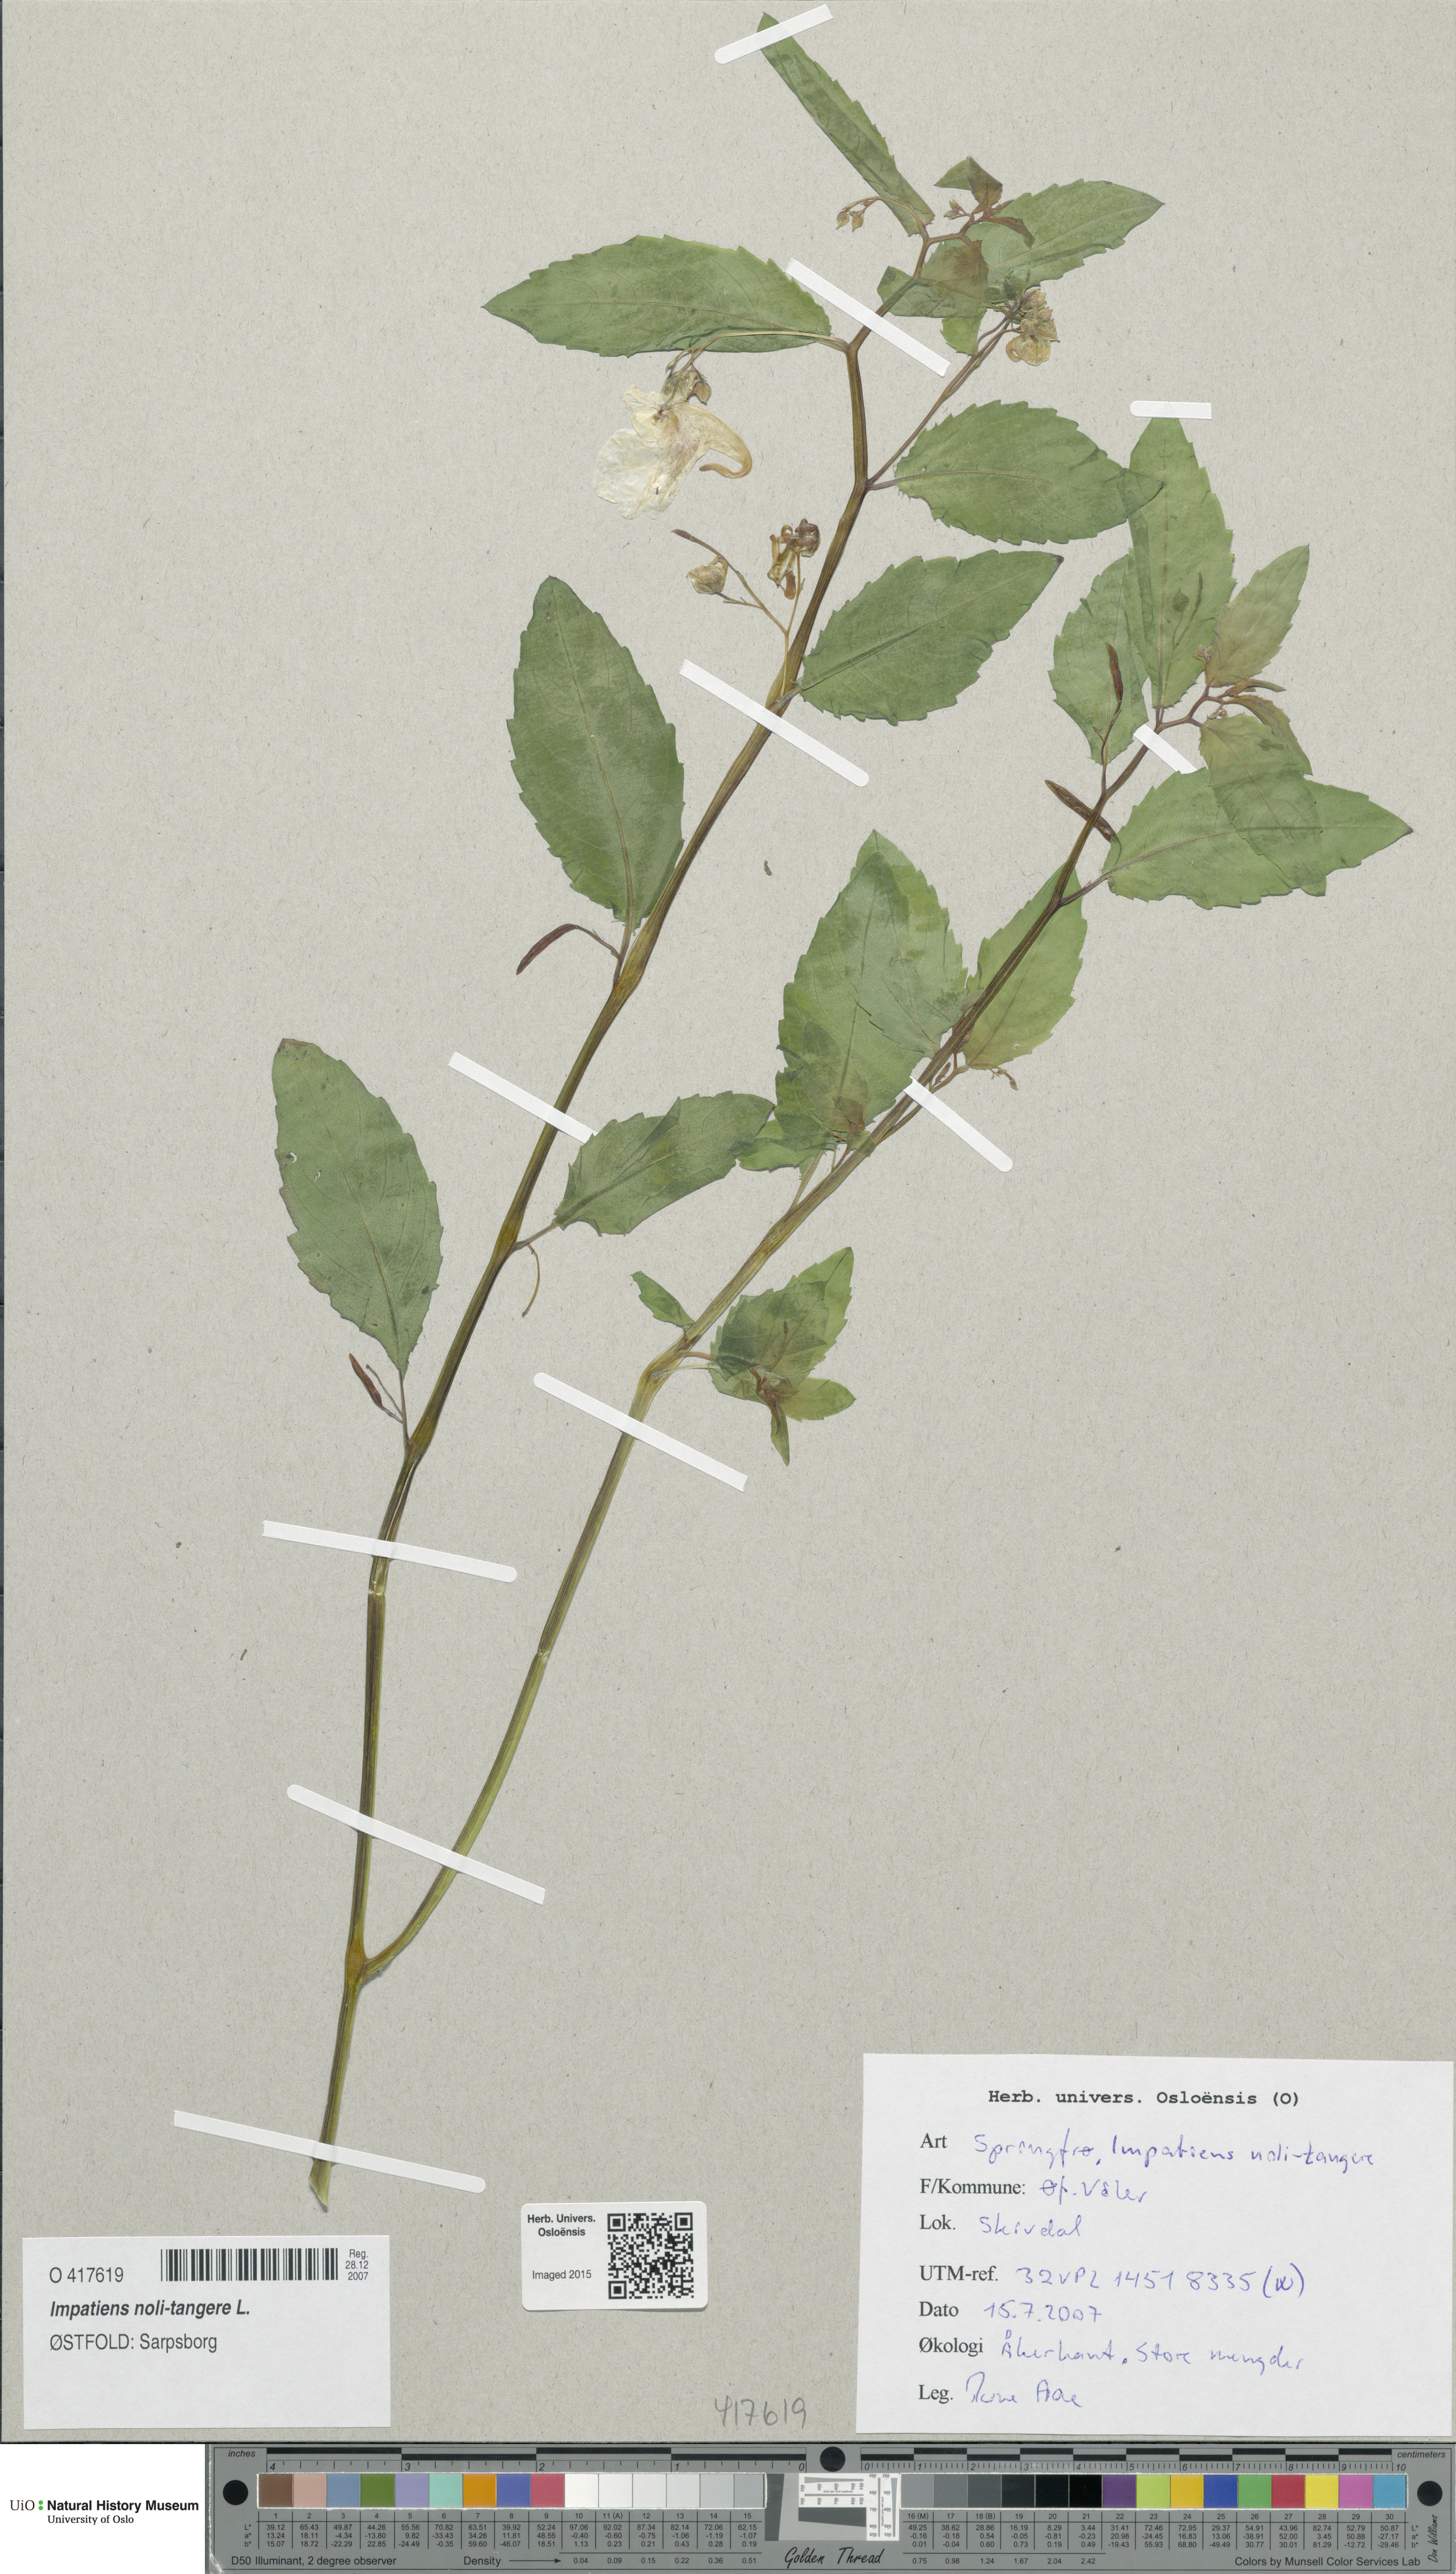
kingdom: Plantae
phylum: Tracheophyta
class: Magnoliopsida
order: Ericales
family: Balsaminaceae
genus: Impatiens
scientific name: Impatiens noli-tangere
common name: Touch-me-not balsam
